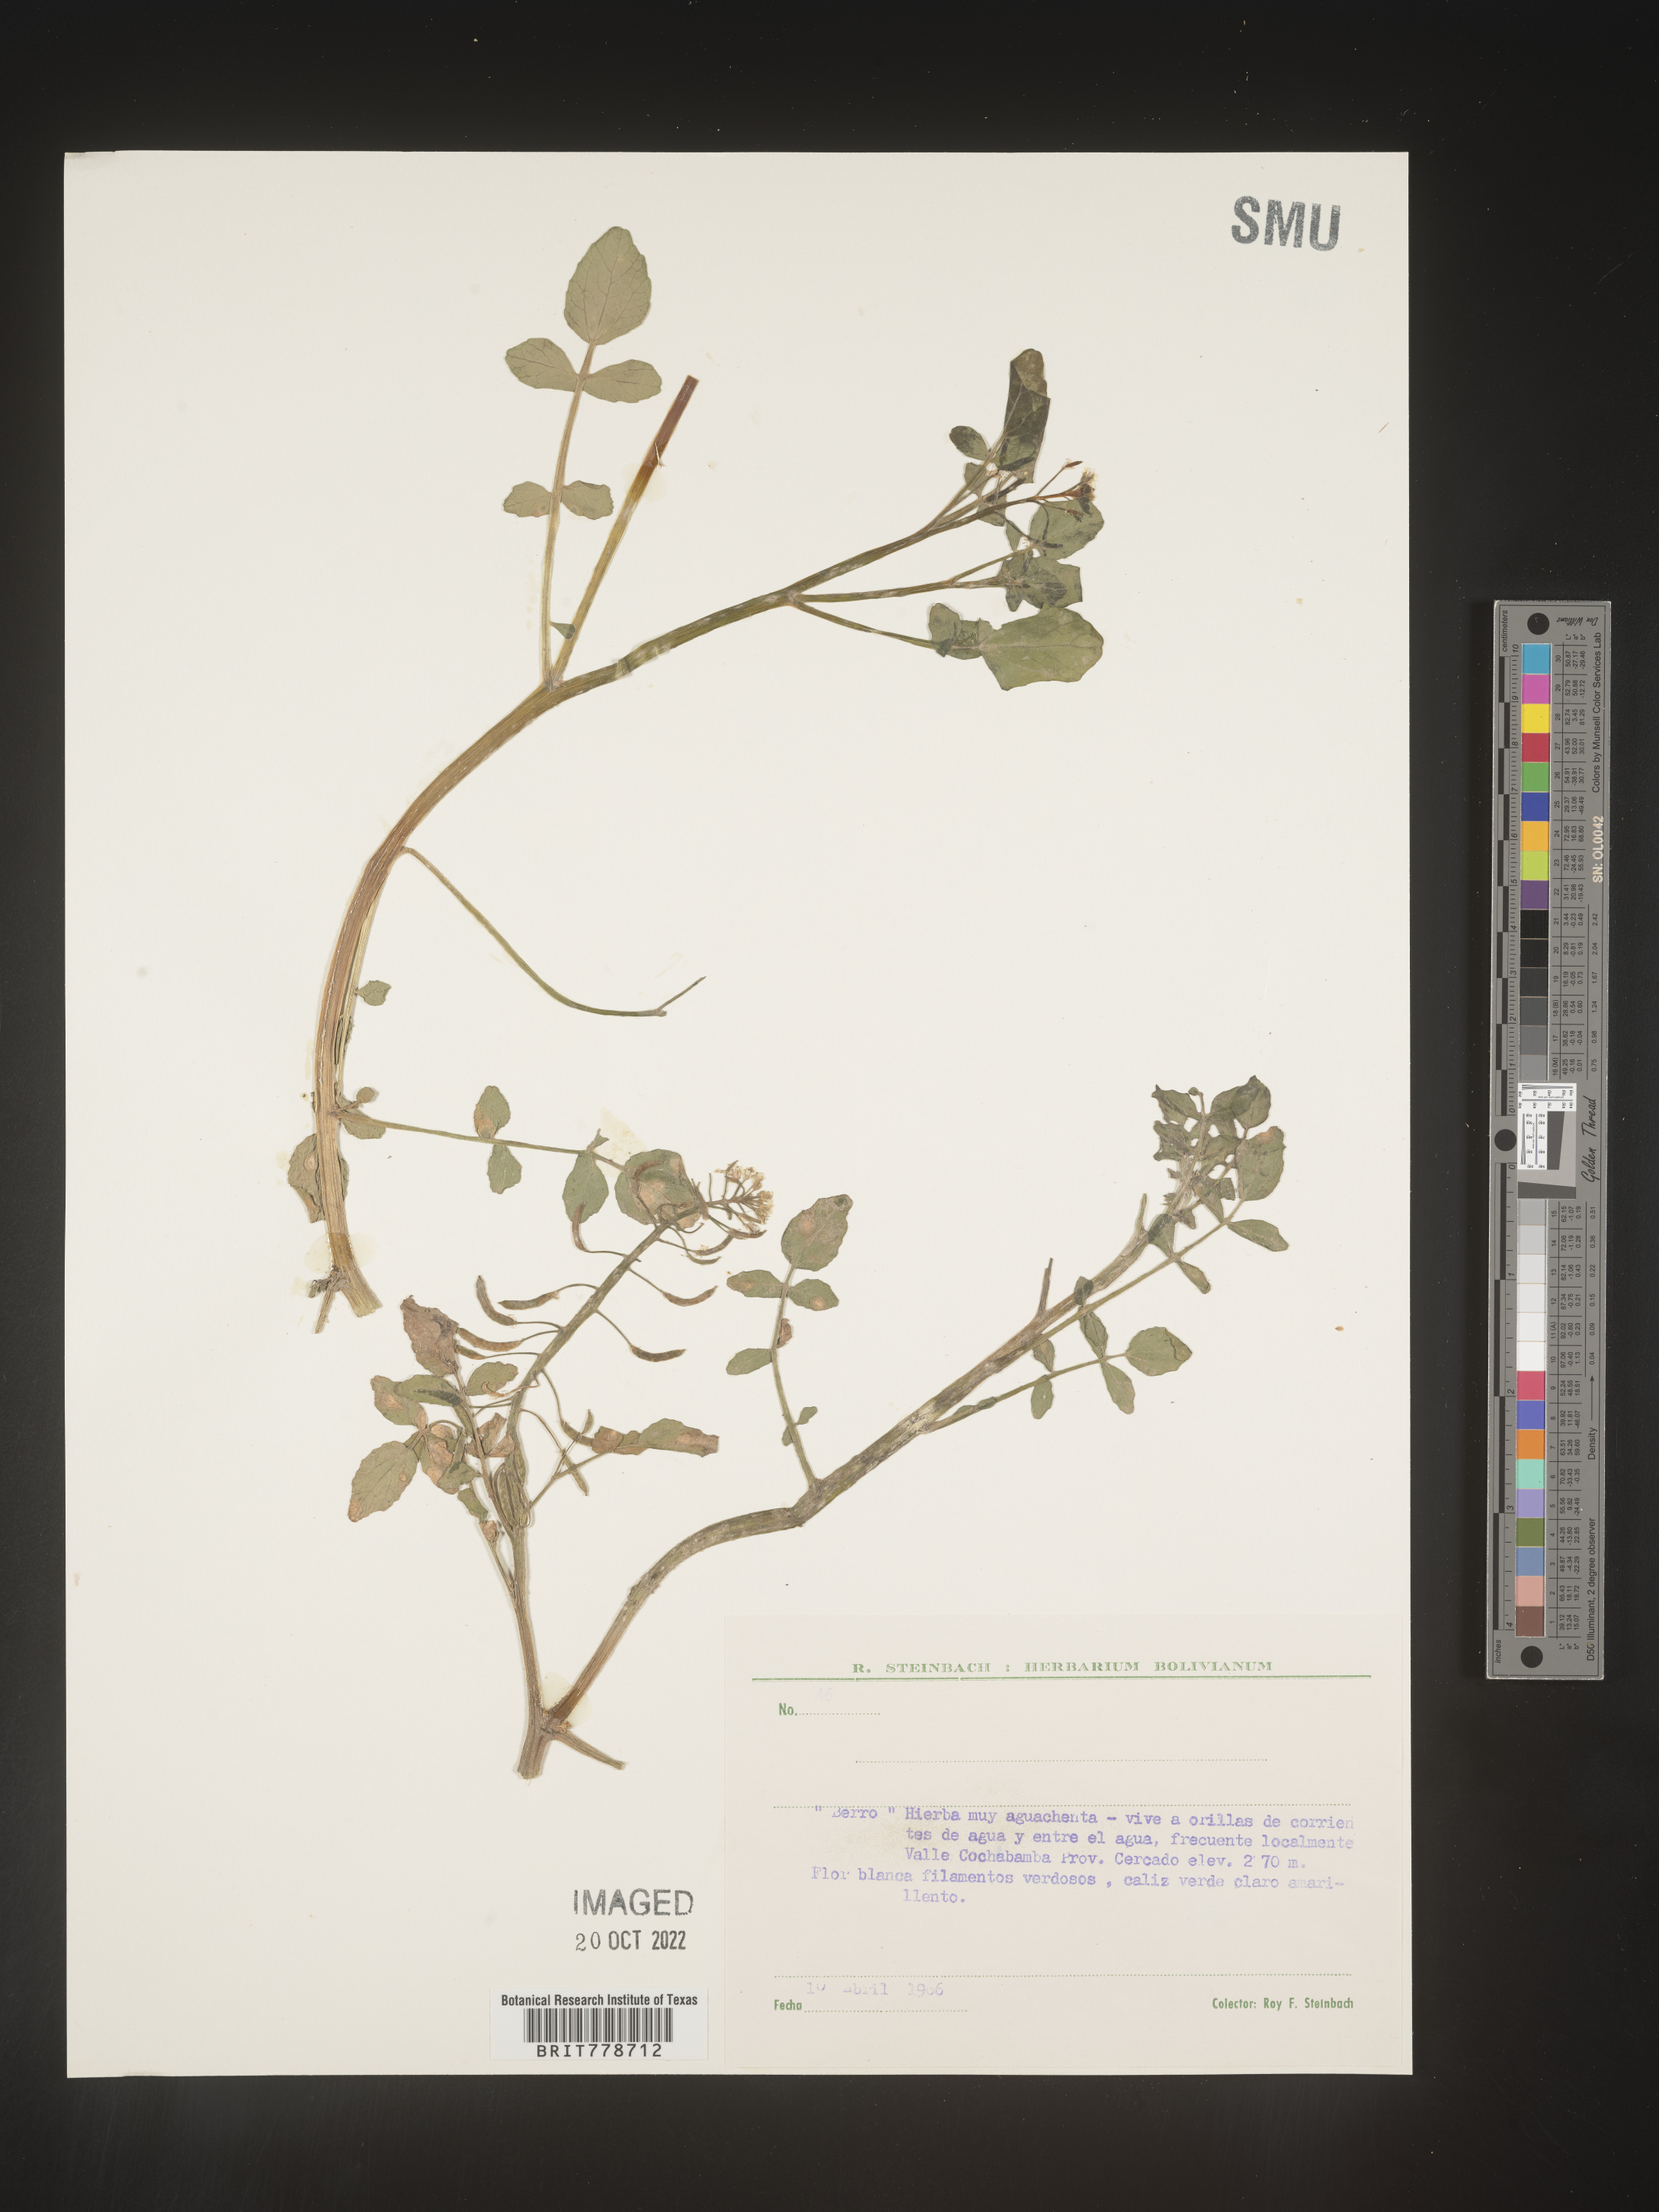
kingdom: Plantae
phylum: Tracheophyta
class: Magnoliopsida
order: Brassicales
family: Brassicaceae
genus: Rorippa
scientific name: Rorippa
